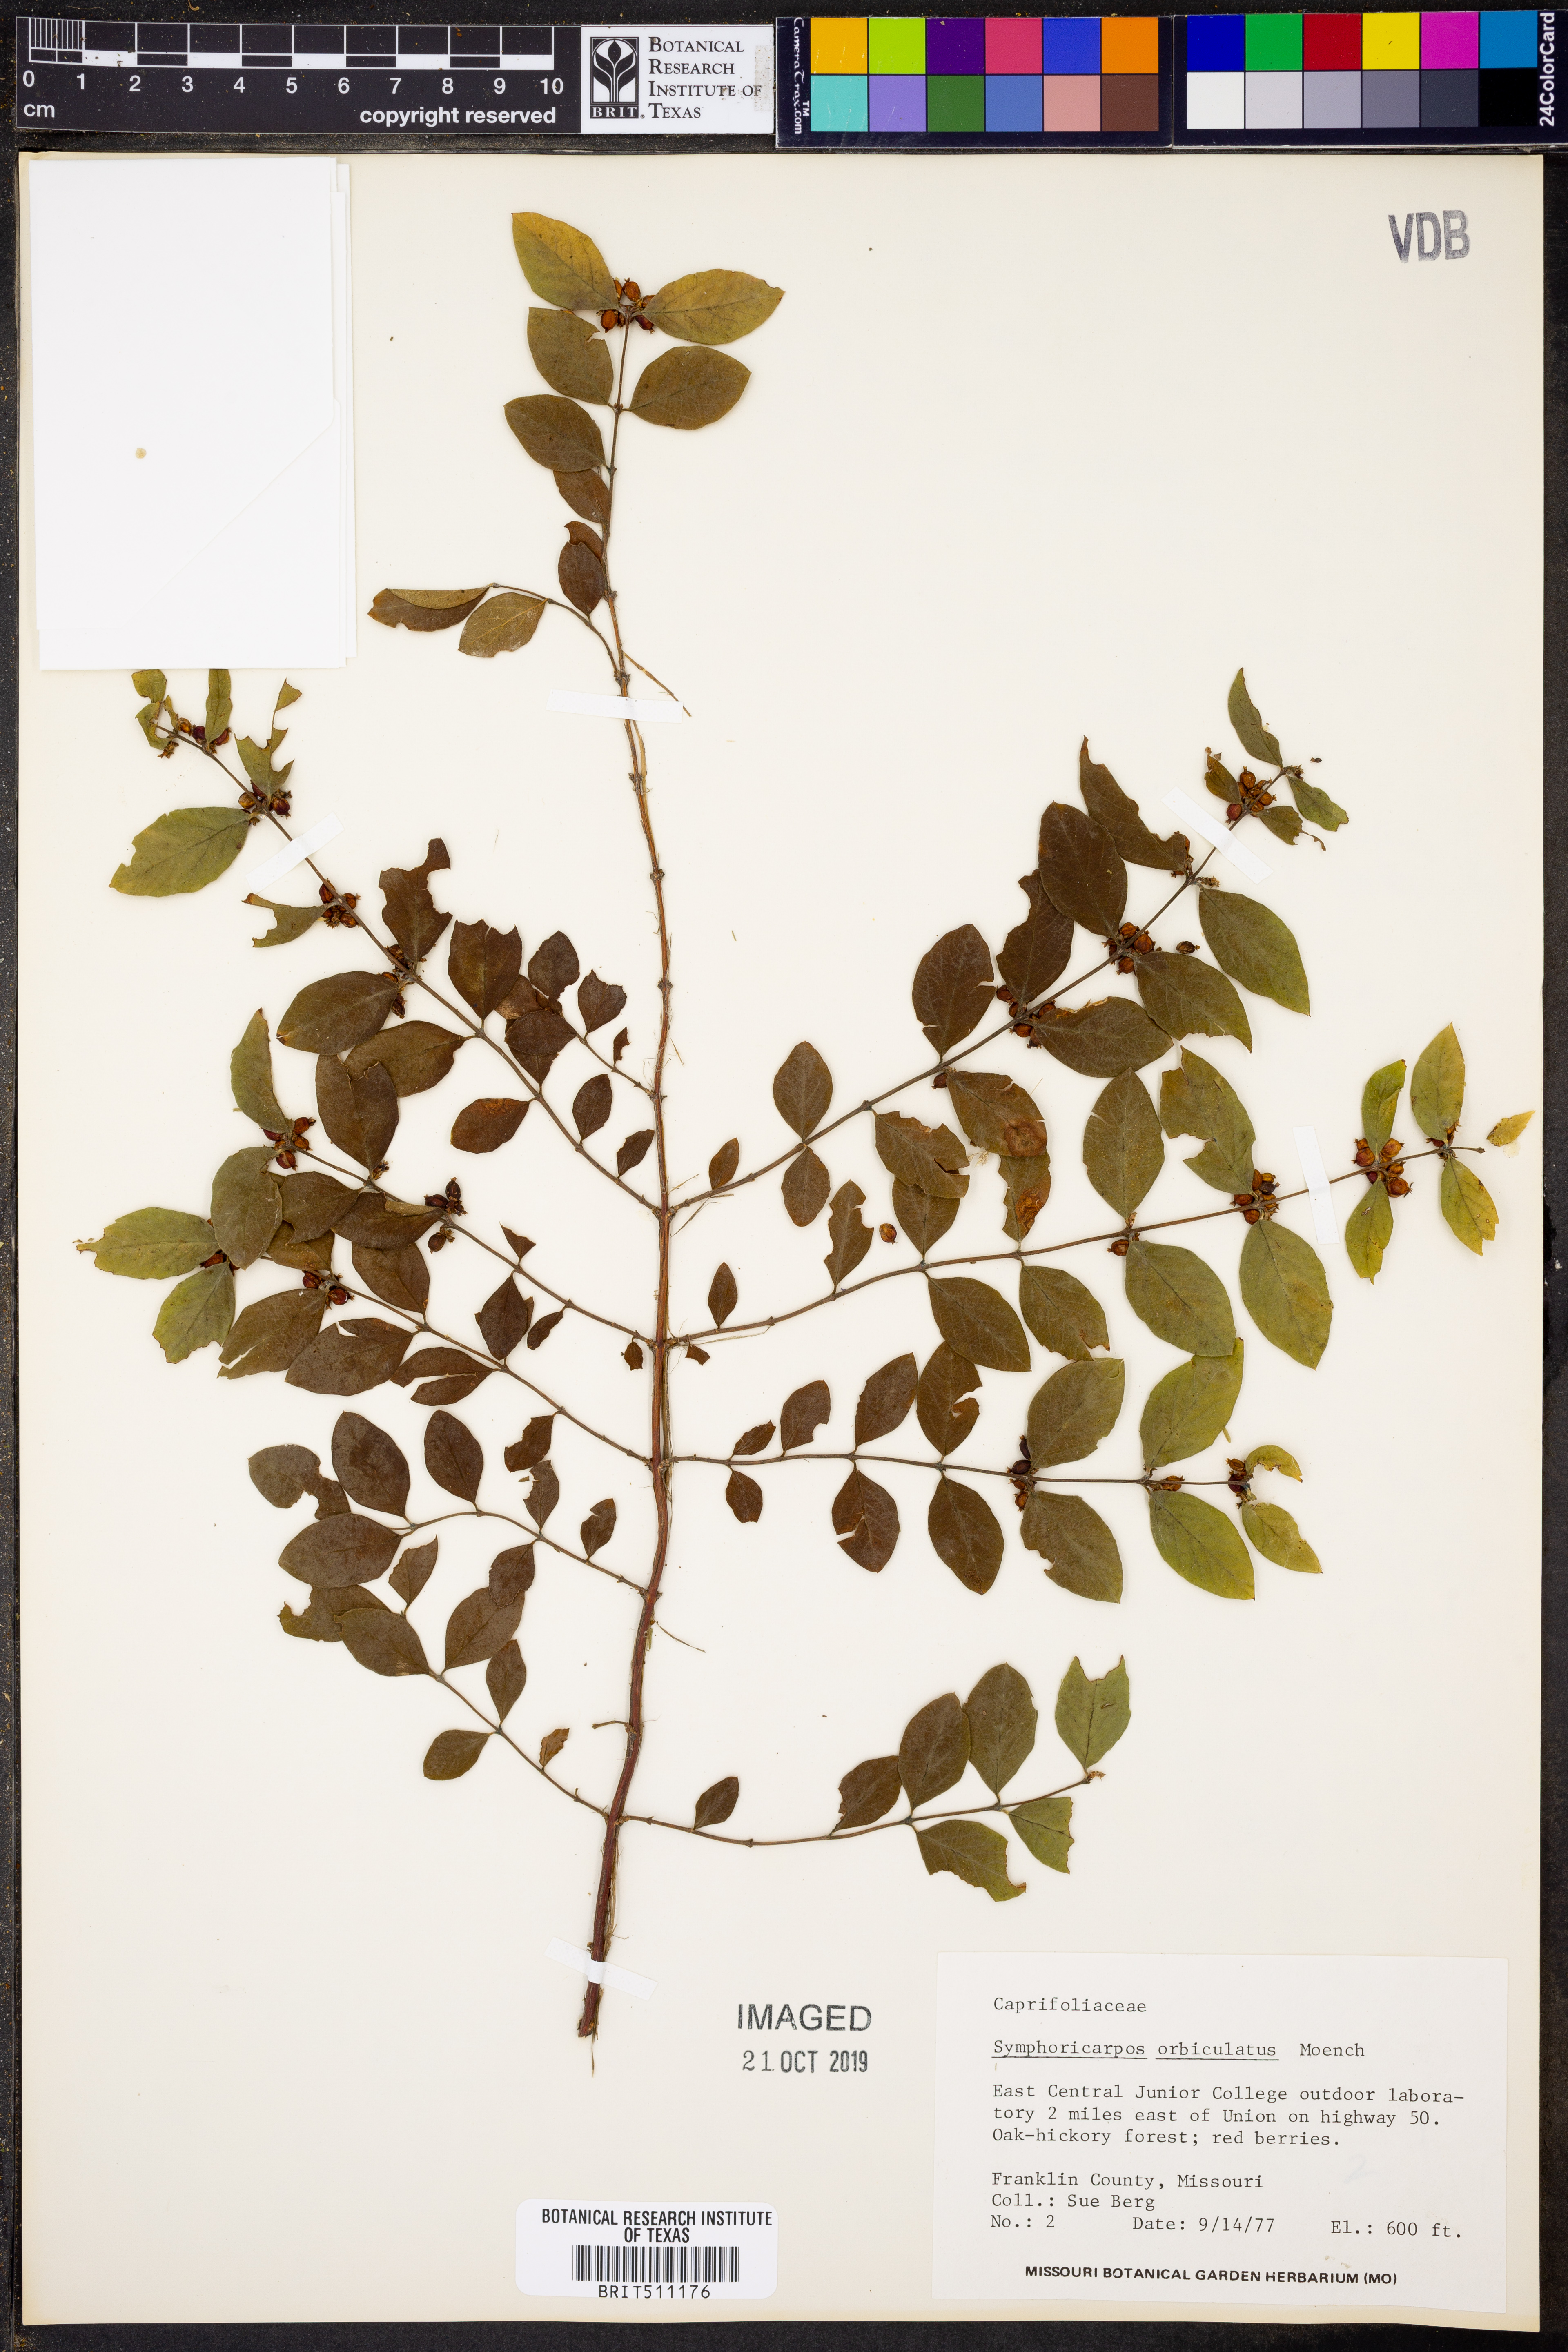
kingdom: Plantae
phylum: Tracheophyta
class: Magnoliopsida
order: Dipsacales
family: Caprifoliaceae
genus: Symphoricarpos
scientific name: Symphoricarpos orbiculatus
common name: Coralberry
